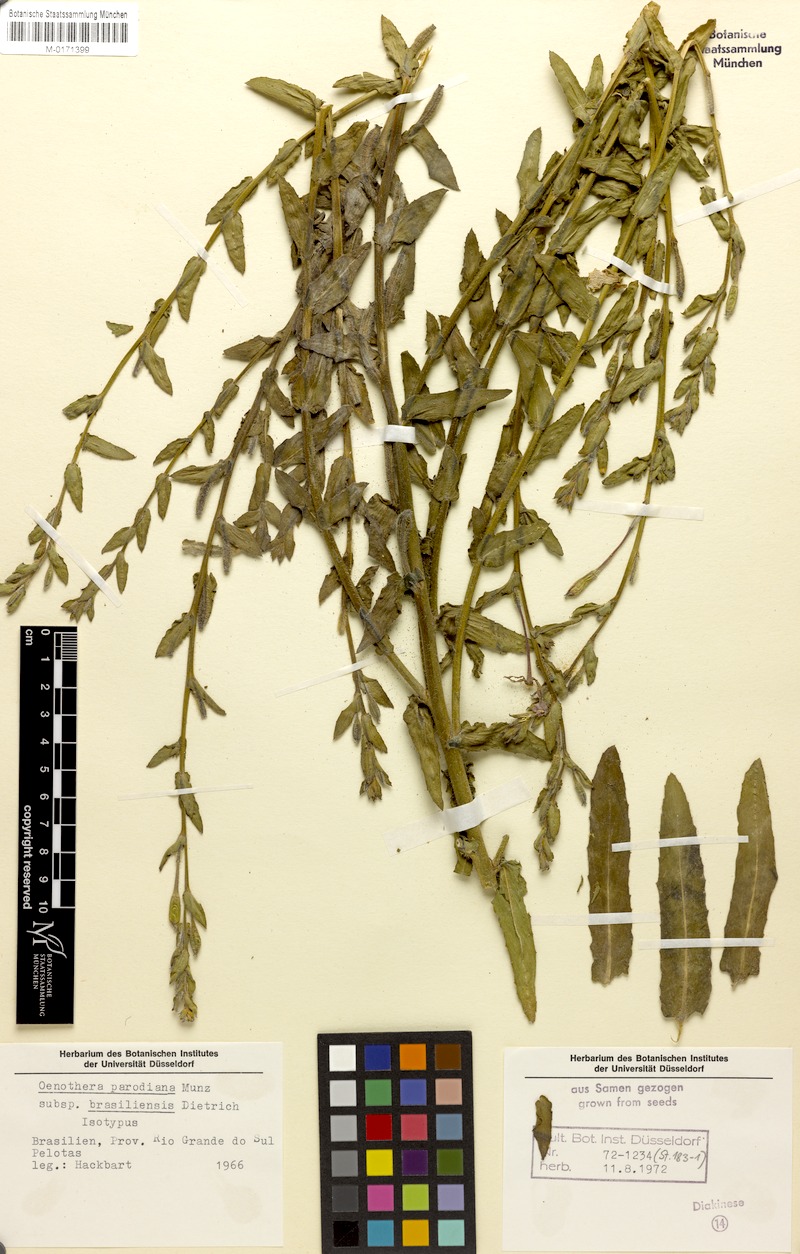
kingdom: Plantae
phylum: Tracheophyta
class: Magnoliopsida
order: Myrtales
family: Onagraceae
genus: Oenothera
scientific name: Oenothera parodiana
